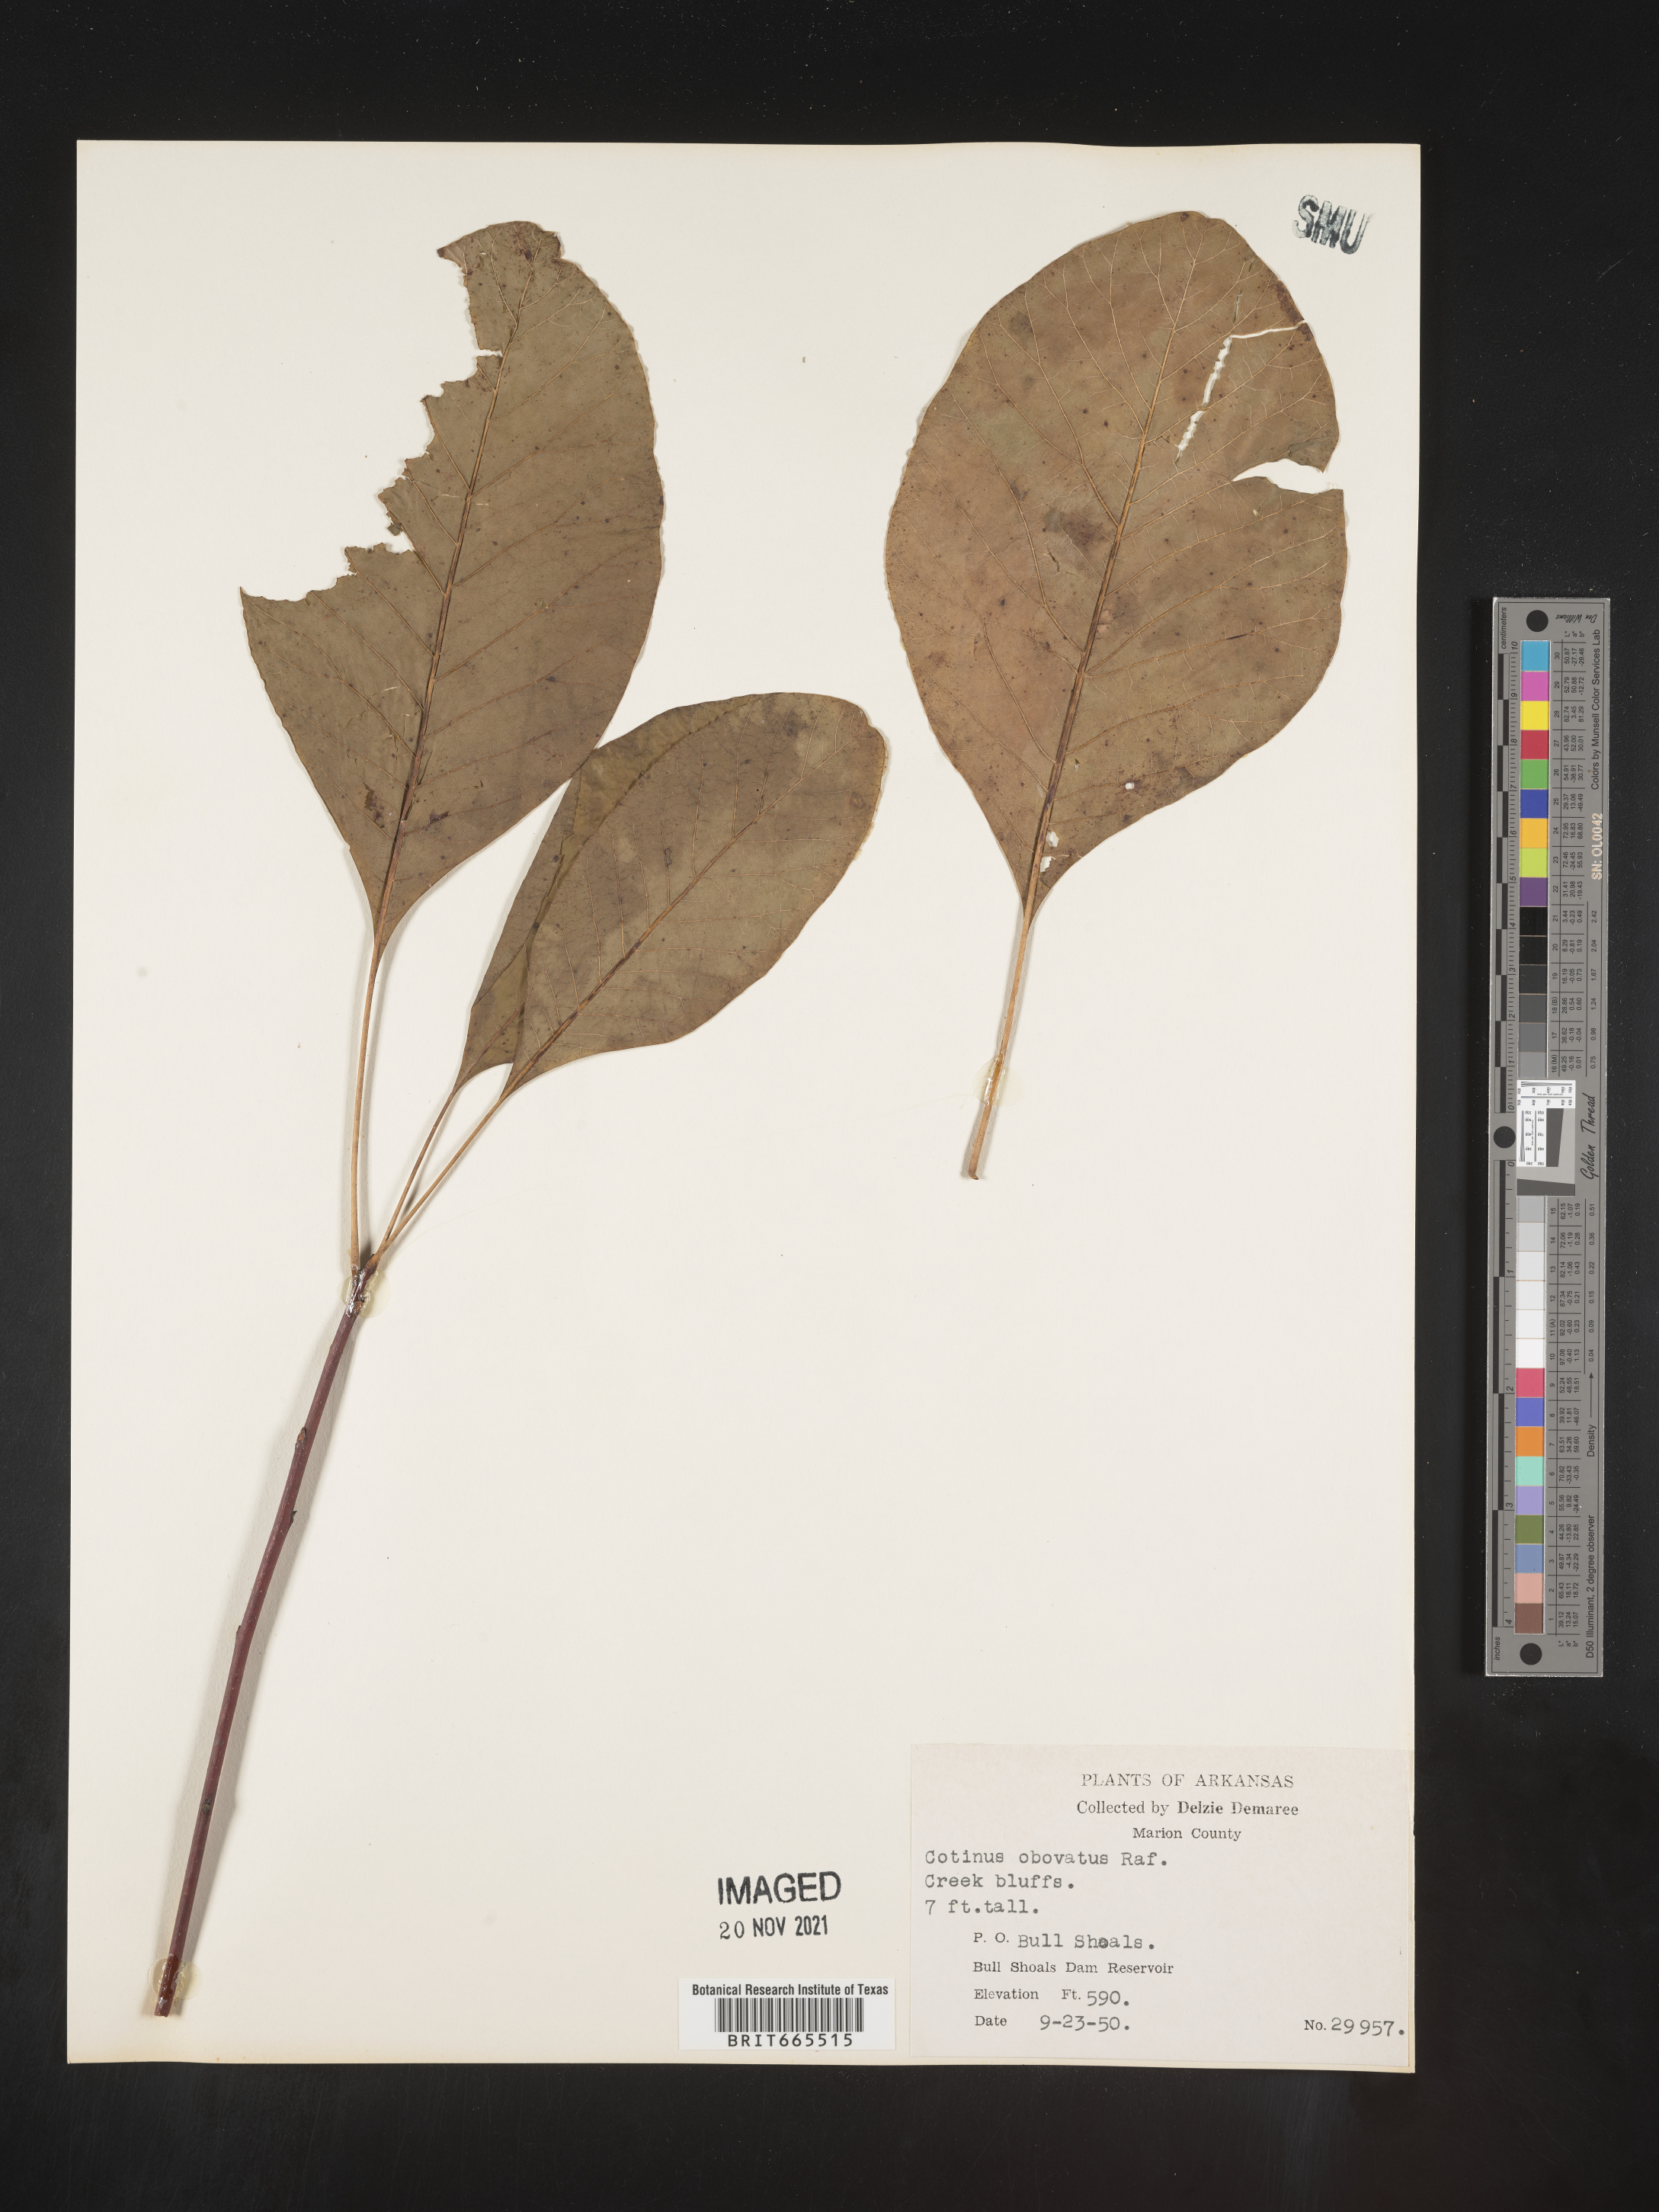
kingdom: Plantae
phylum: Tracheophyta
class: Magnoliopsida
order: Sapindales
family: Anacardiaceae
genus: Cotinus
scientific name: Cotinus obovatus
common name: Chittamwood
